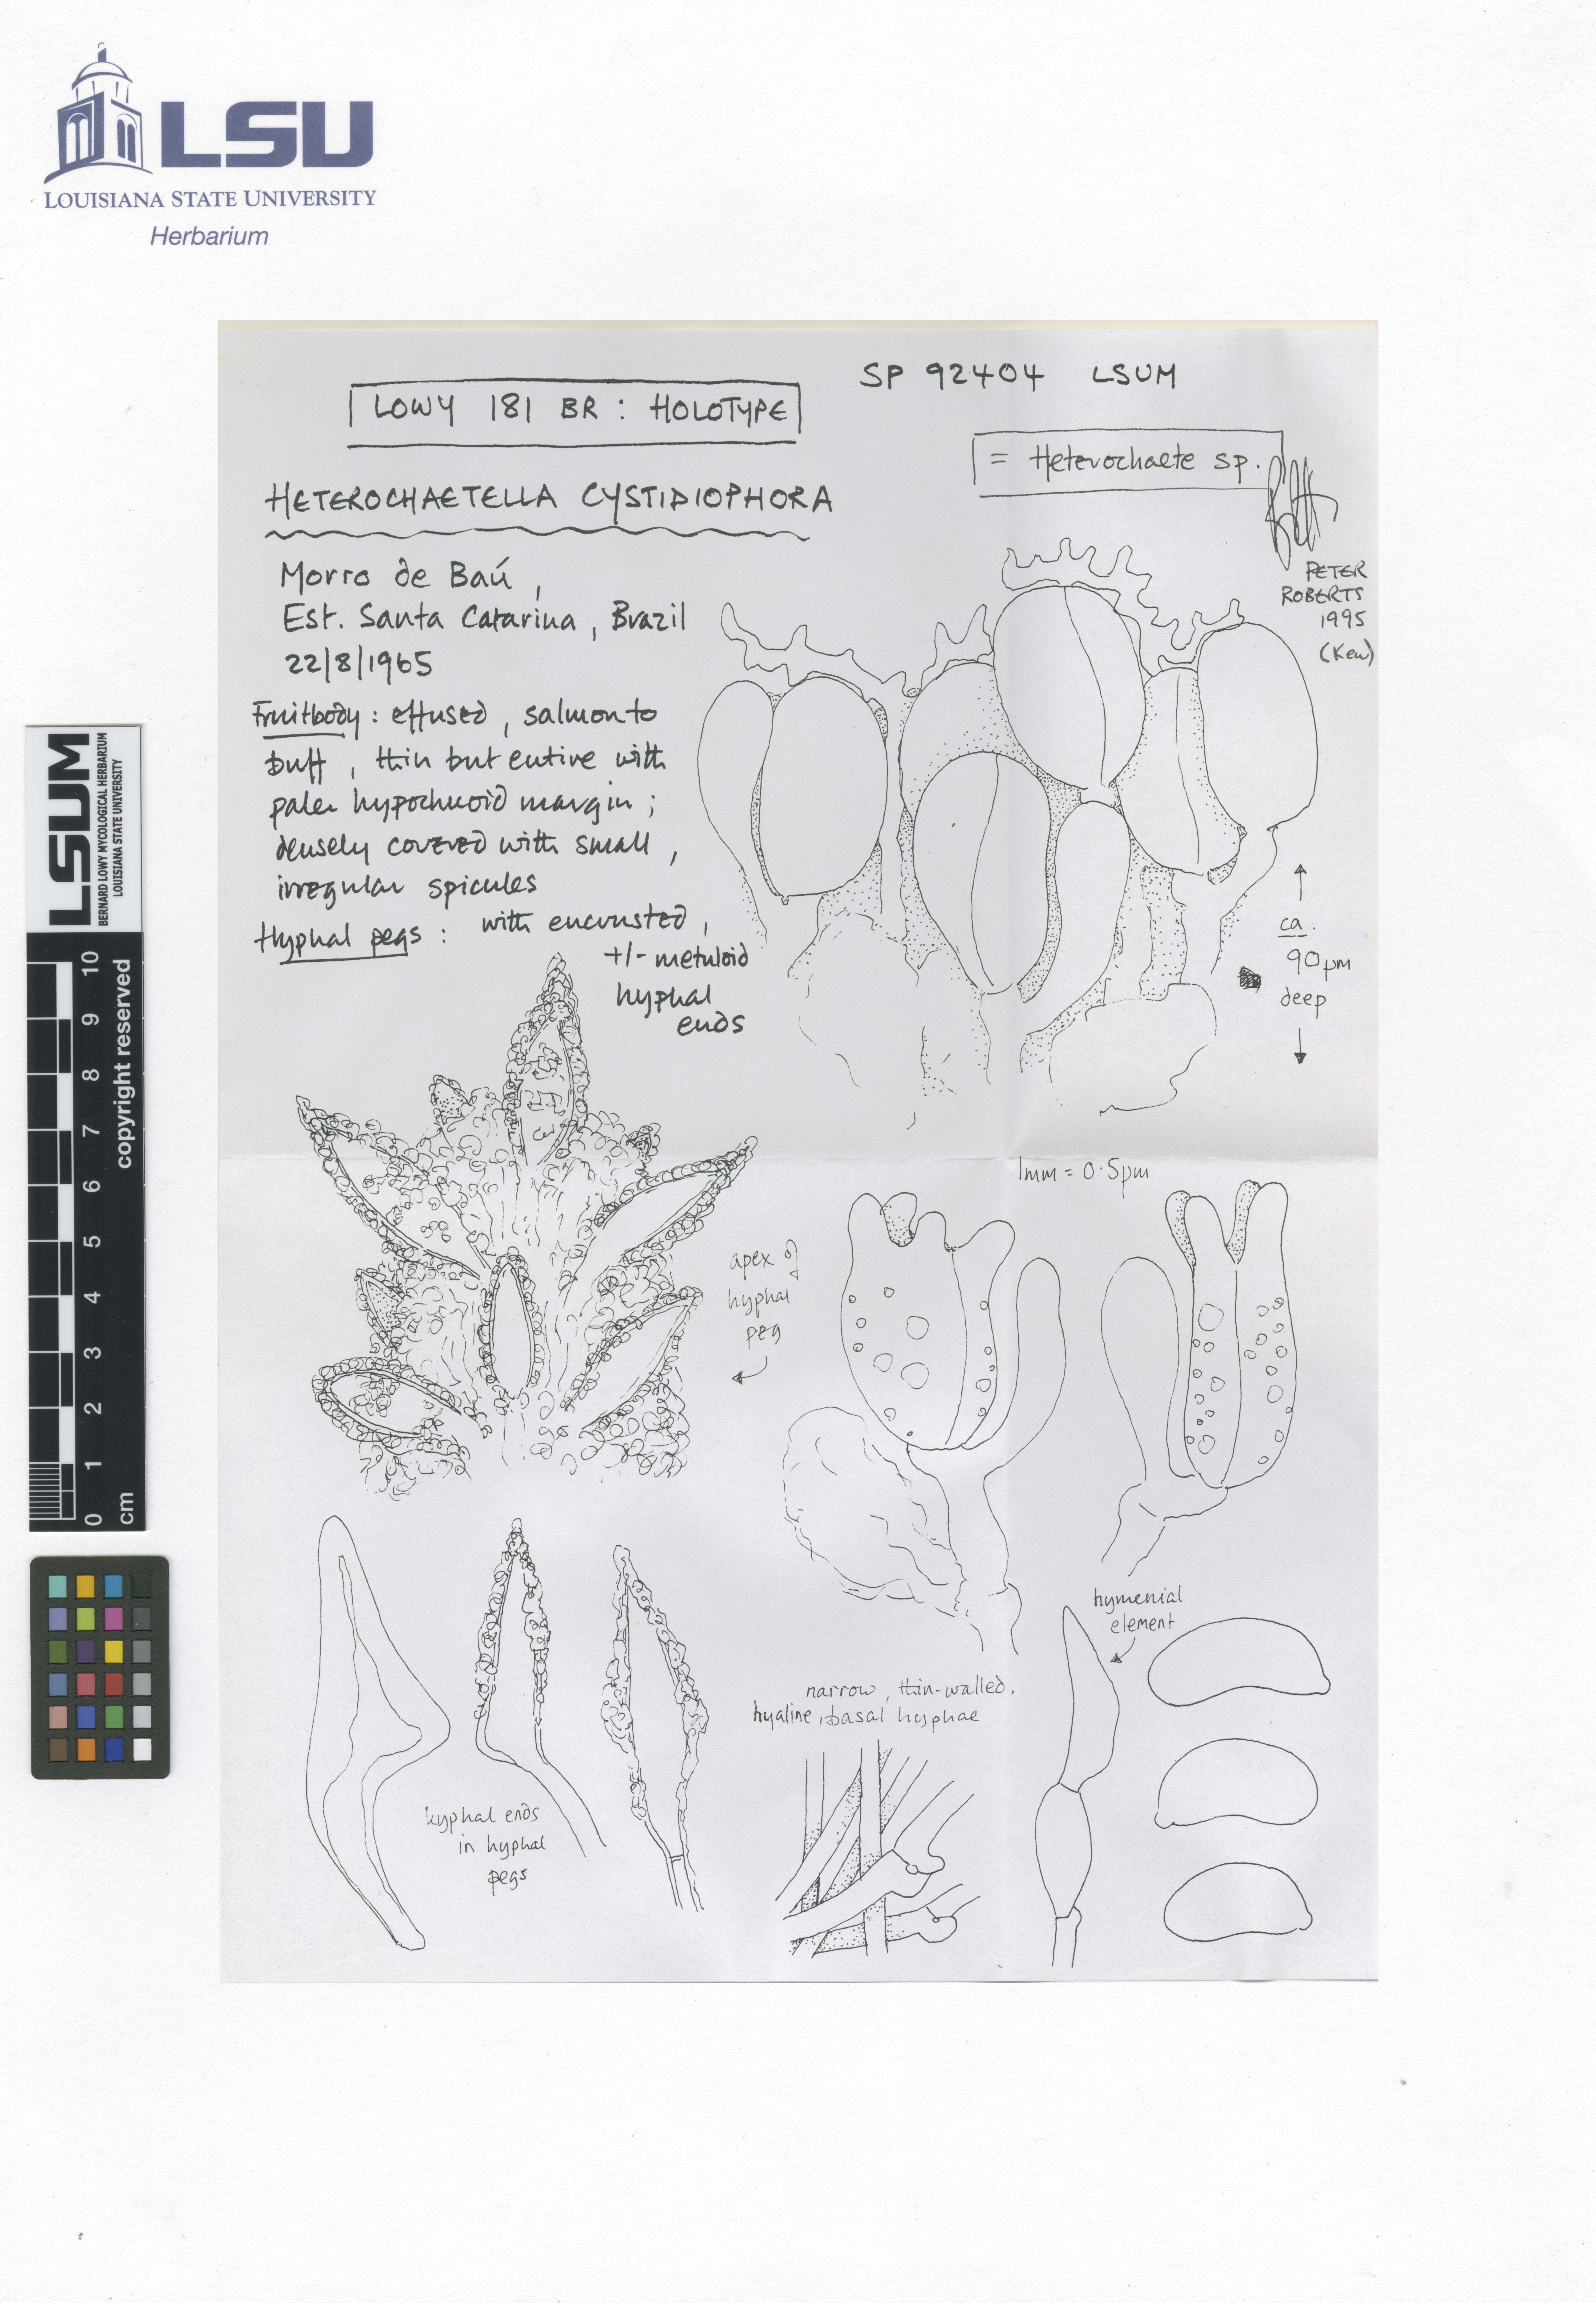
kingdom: Fungi
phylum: Basidiomycota
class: Agaricomycetes
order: Auriculariales
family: Auriculariaceae
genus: Heterochaete
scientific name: Heterochaete cystidiophora
